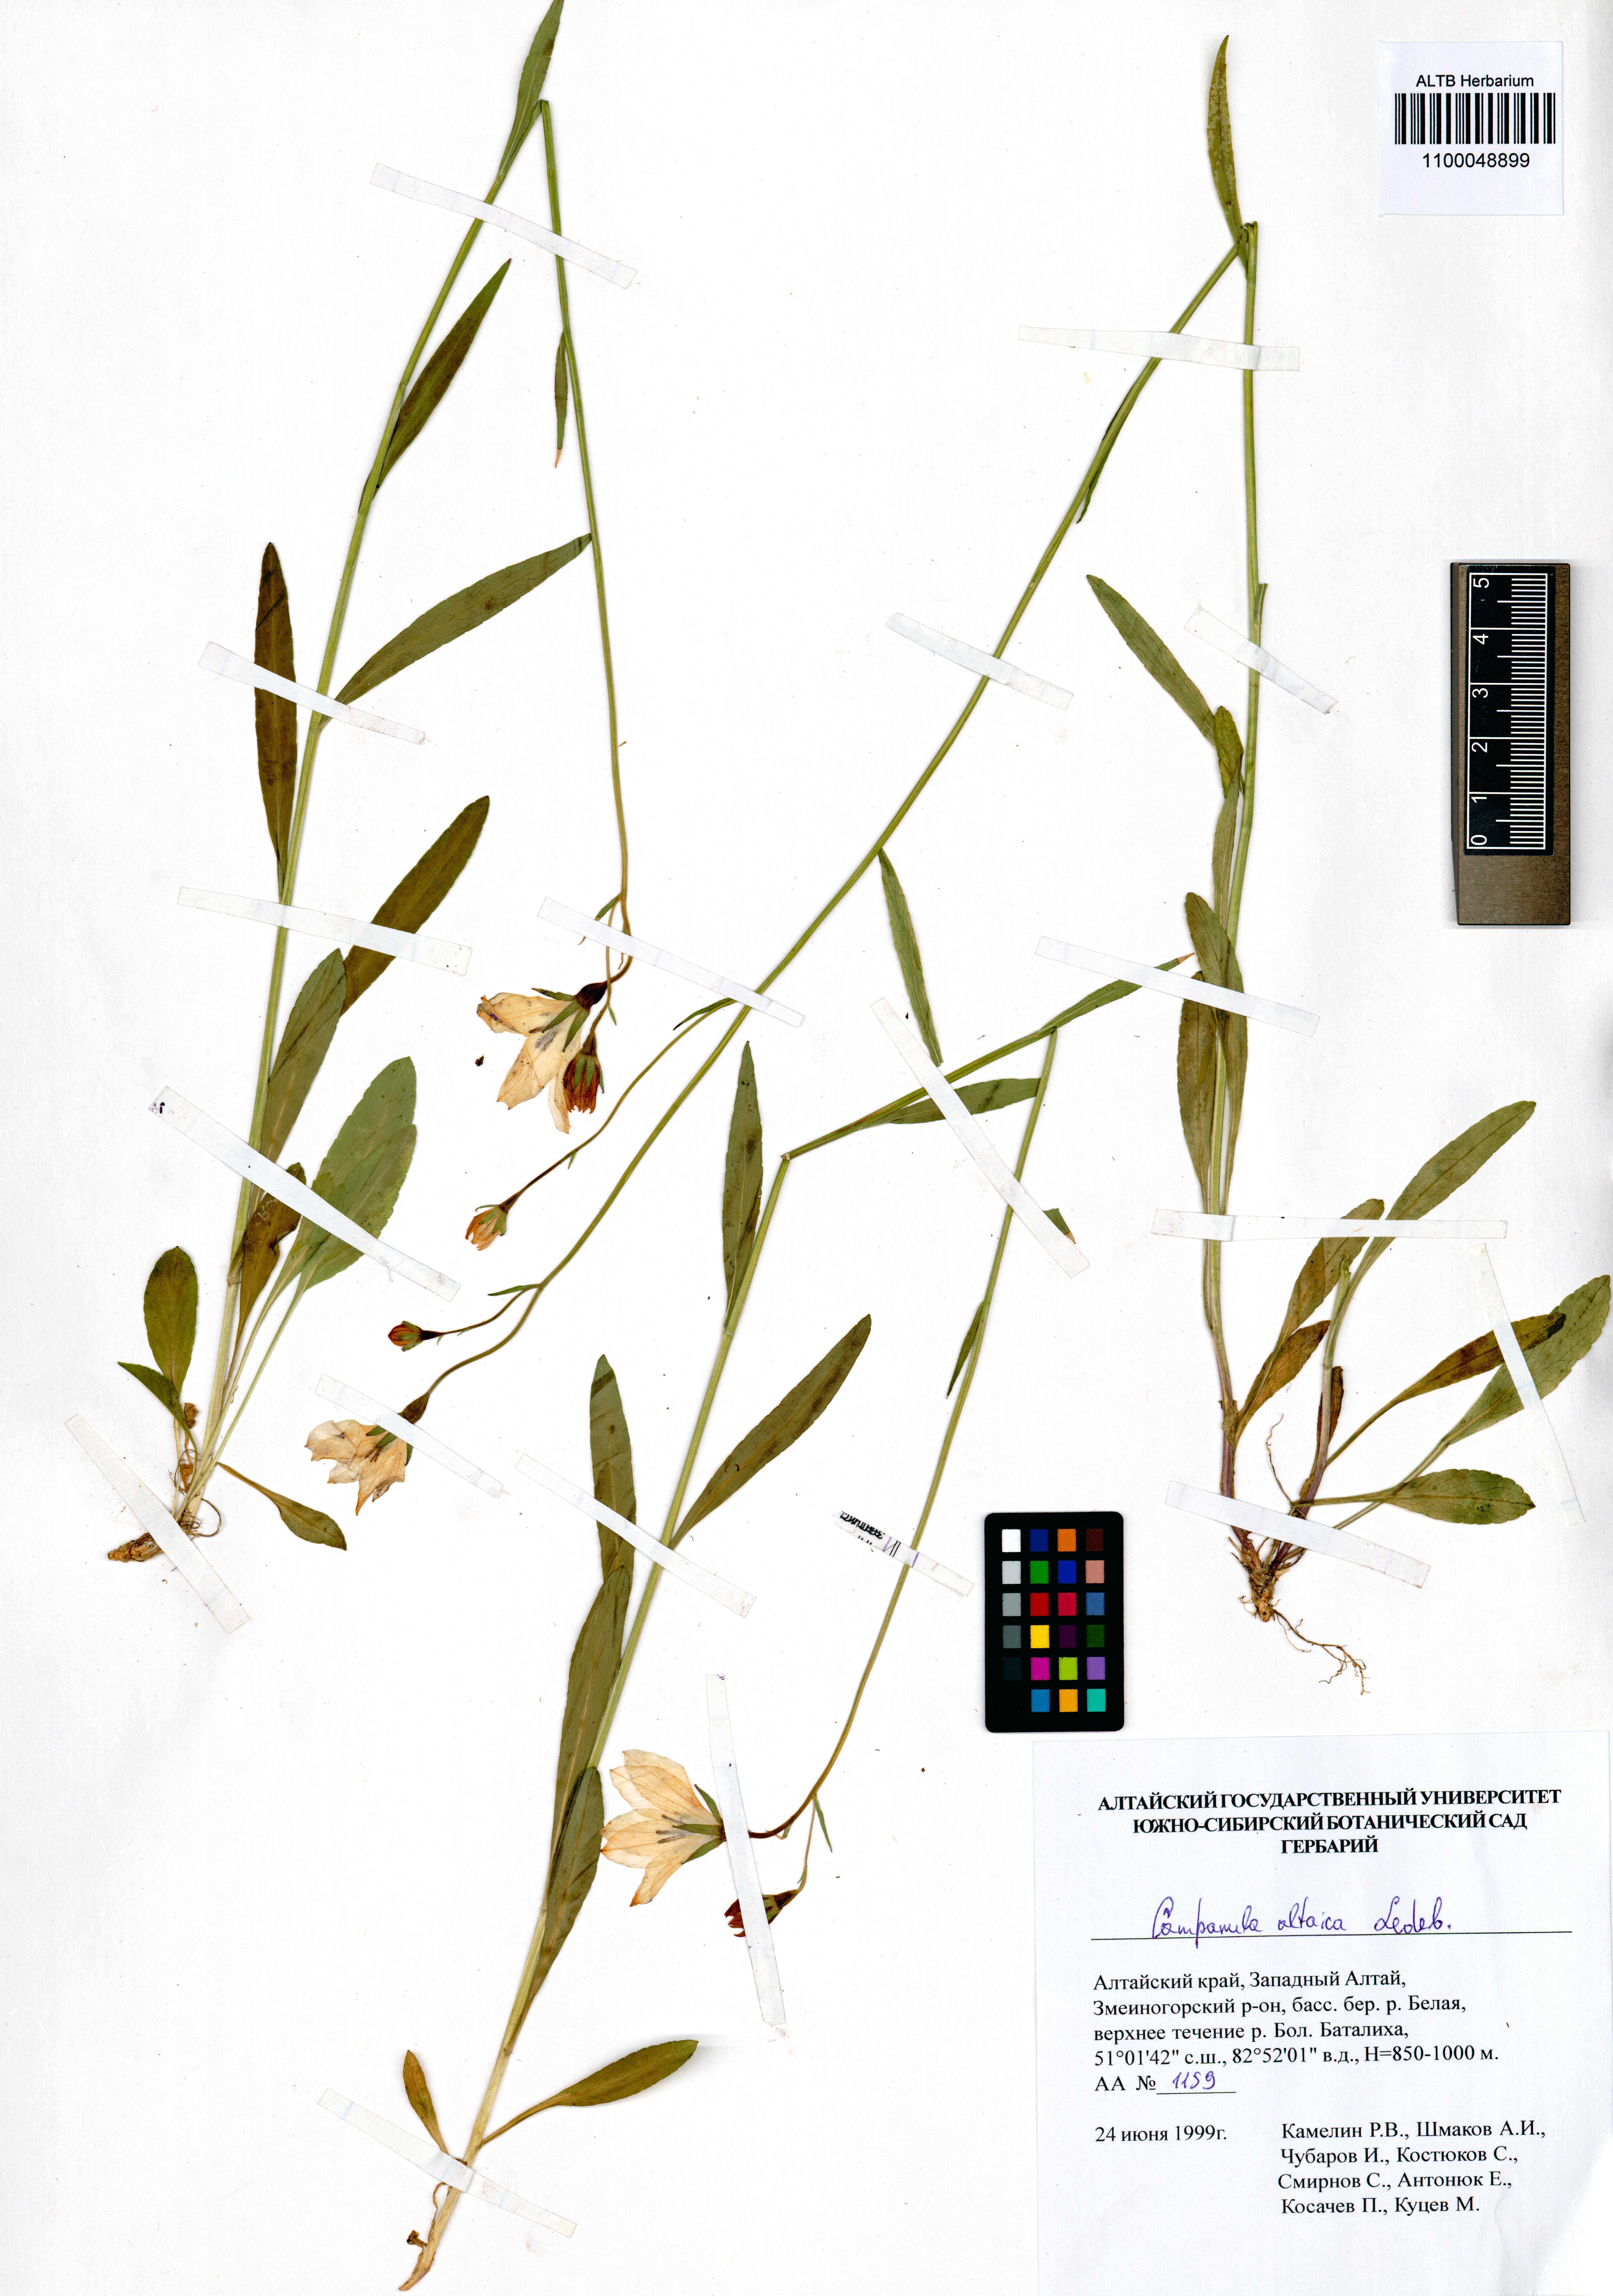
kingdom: Plantae
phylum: Tracheophyta
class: Magnoliopsida
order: Asterales
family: Campanulaceae
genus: Campanula
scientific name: Campanula stevenii
